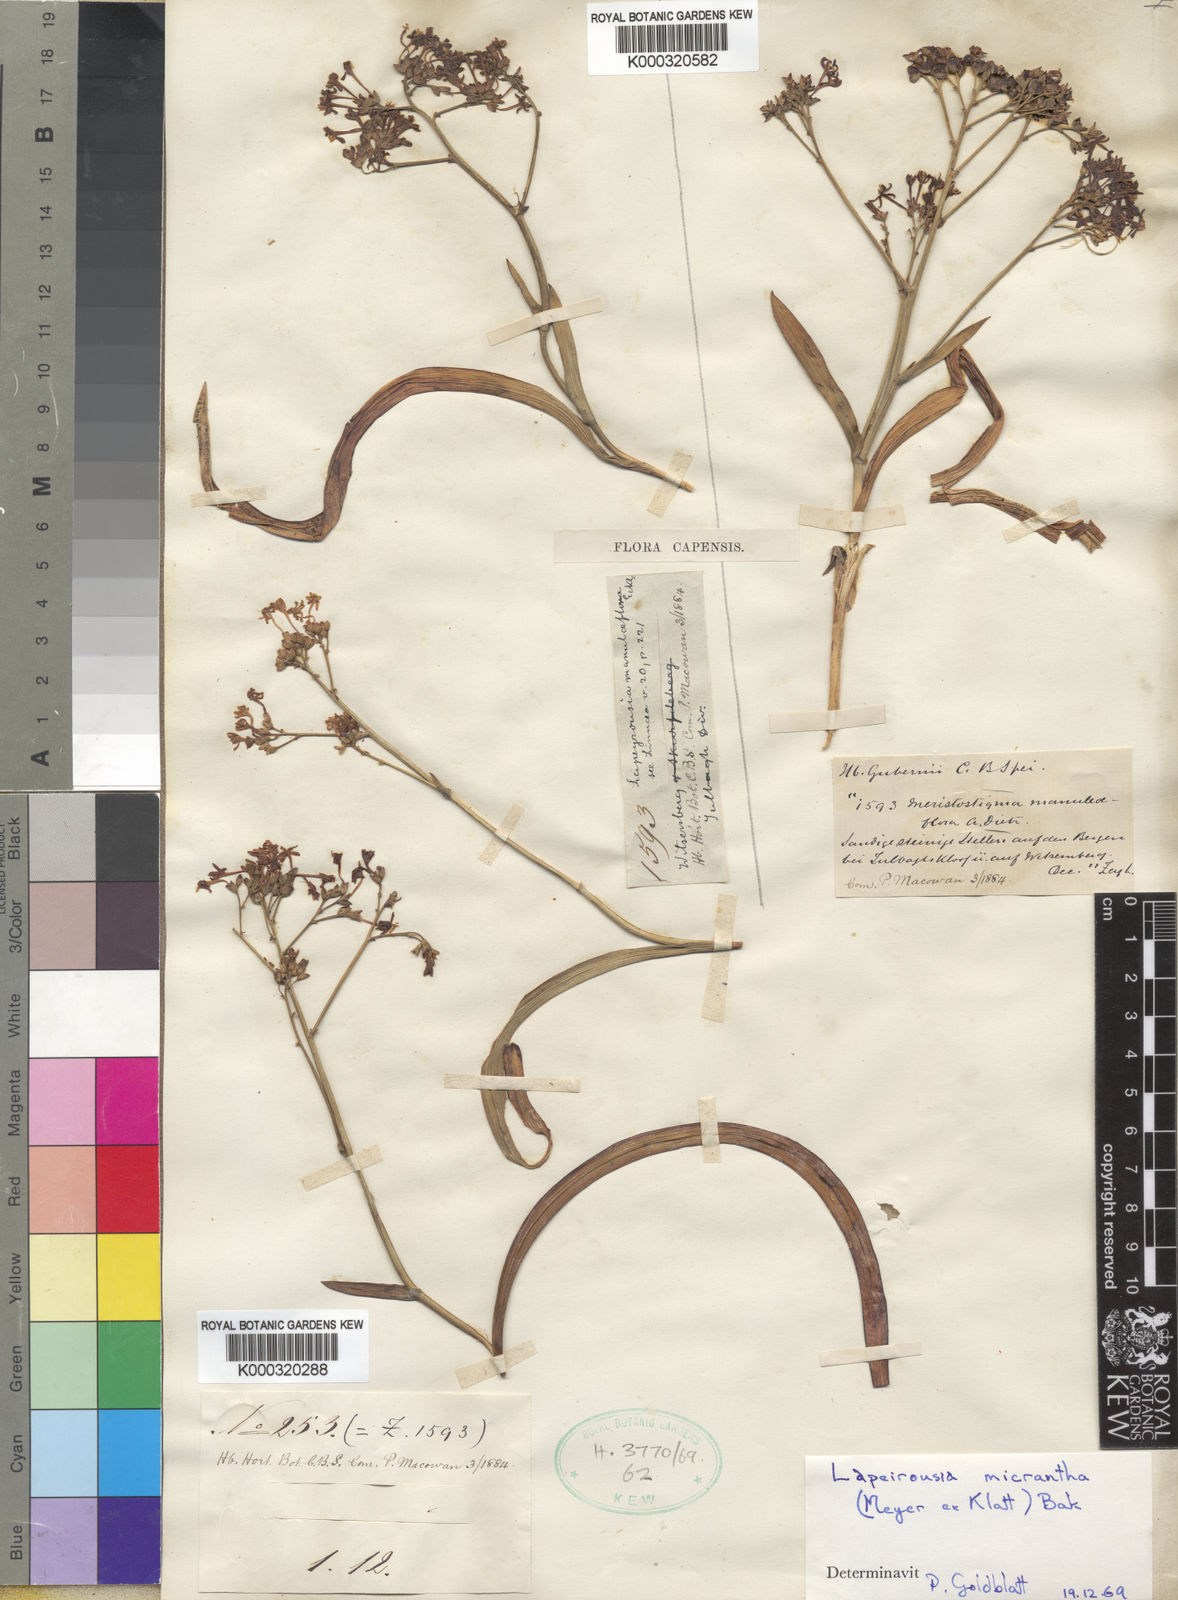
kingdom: Plantae
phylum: Tracheophyta
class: Liliopsida
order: Asparagales
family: Iridaceae
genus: Codonorhiza
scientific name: Codonorhiza micrantha
